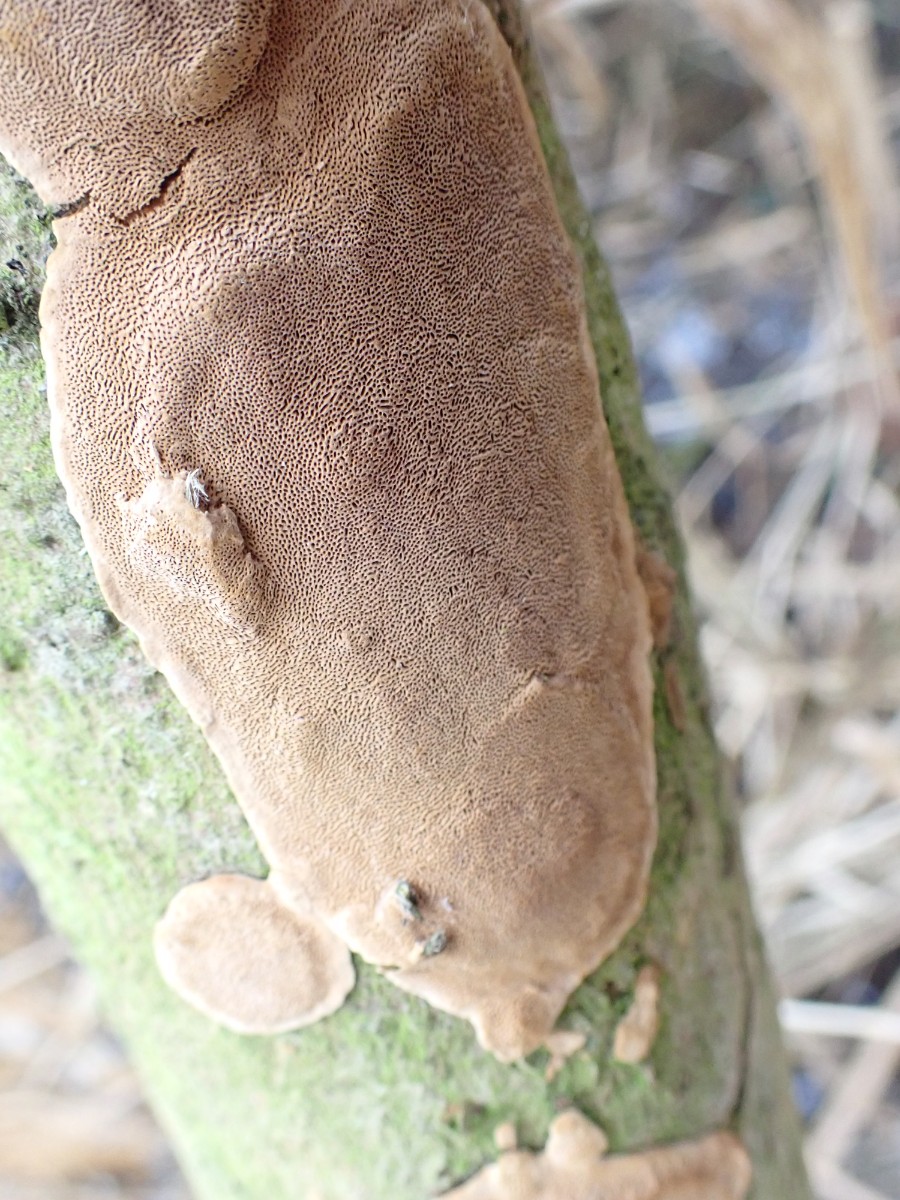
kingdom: Fungi
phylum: Basidiomycota
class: Agaricomycetes
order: Hymenochaetales
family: Hymenochaetaceae
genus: Phellinopsis
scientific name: Phellinopsis conchata
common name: pile-ildporesvamp
